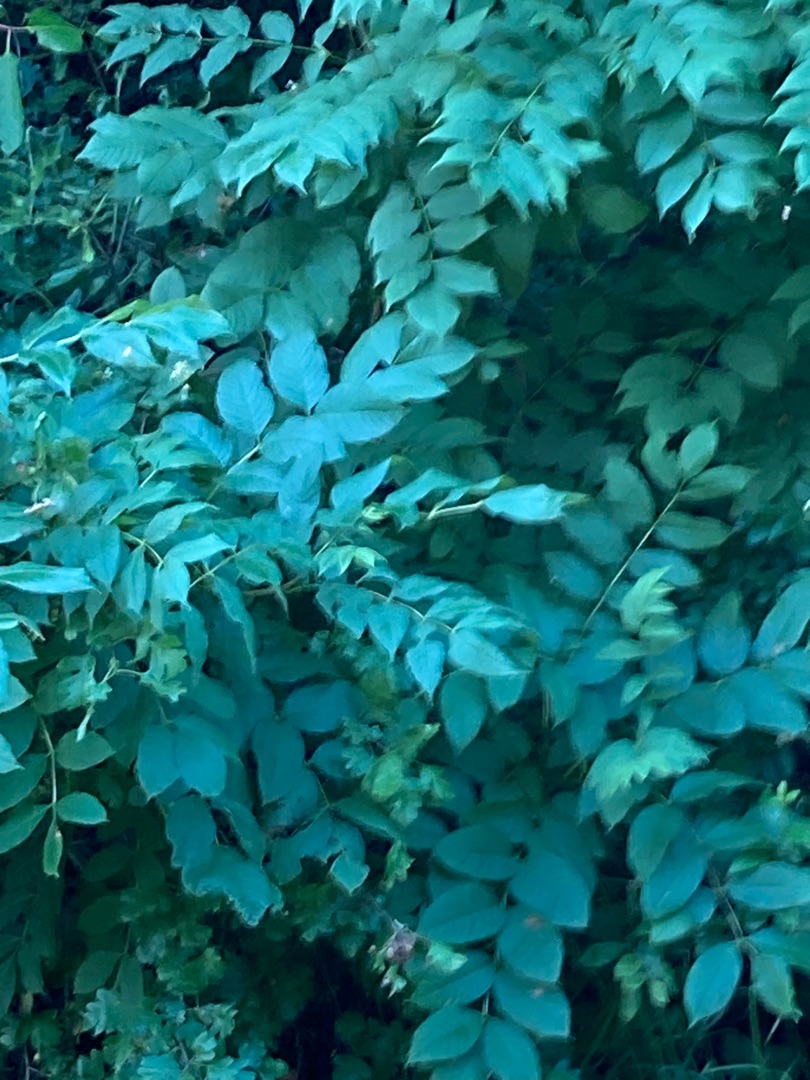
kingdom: Plantae
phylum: Tracheophyta
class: Magnoliopsida
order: Lamiales
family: Oleaceae
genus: Fraxinus
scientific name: Fraxinus excelsior
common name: Ask
